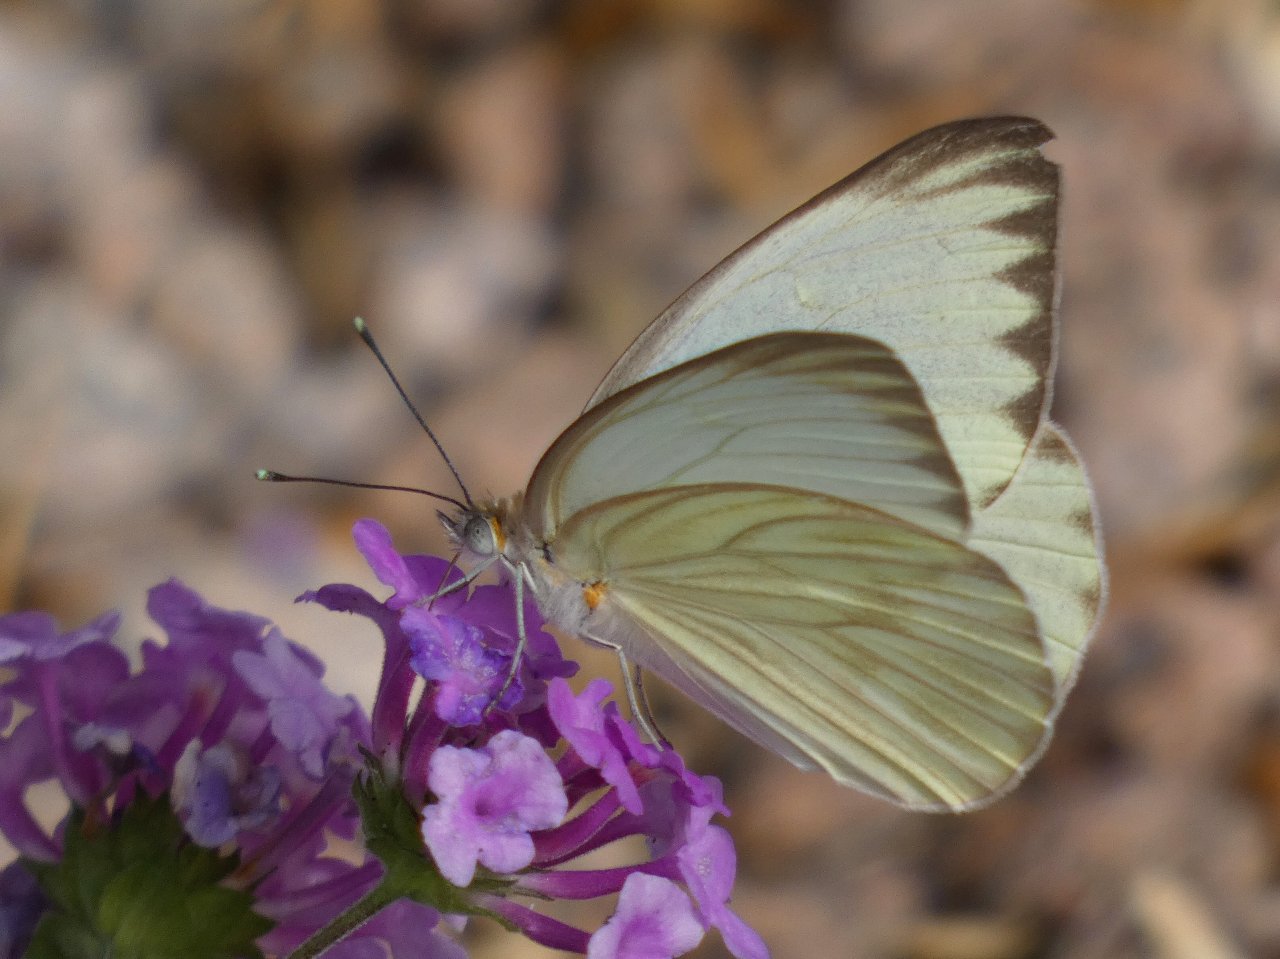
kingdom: Animalia
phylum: Arthropoda
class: Insecta
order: Lepidoptera
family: Pieridae
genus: Ascia
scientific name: Ascia monuste
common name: Great Southern White
